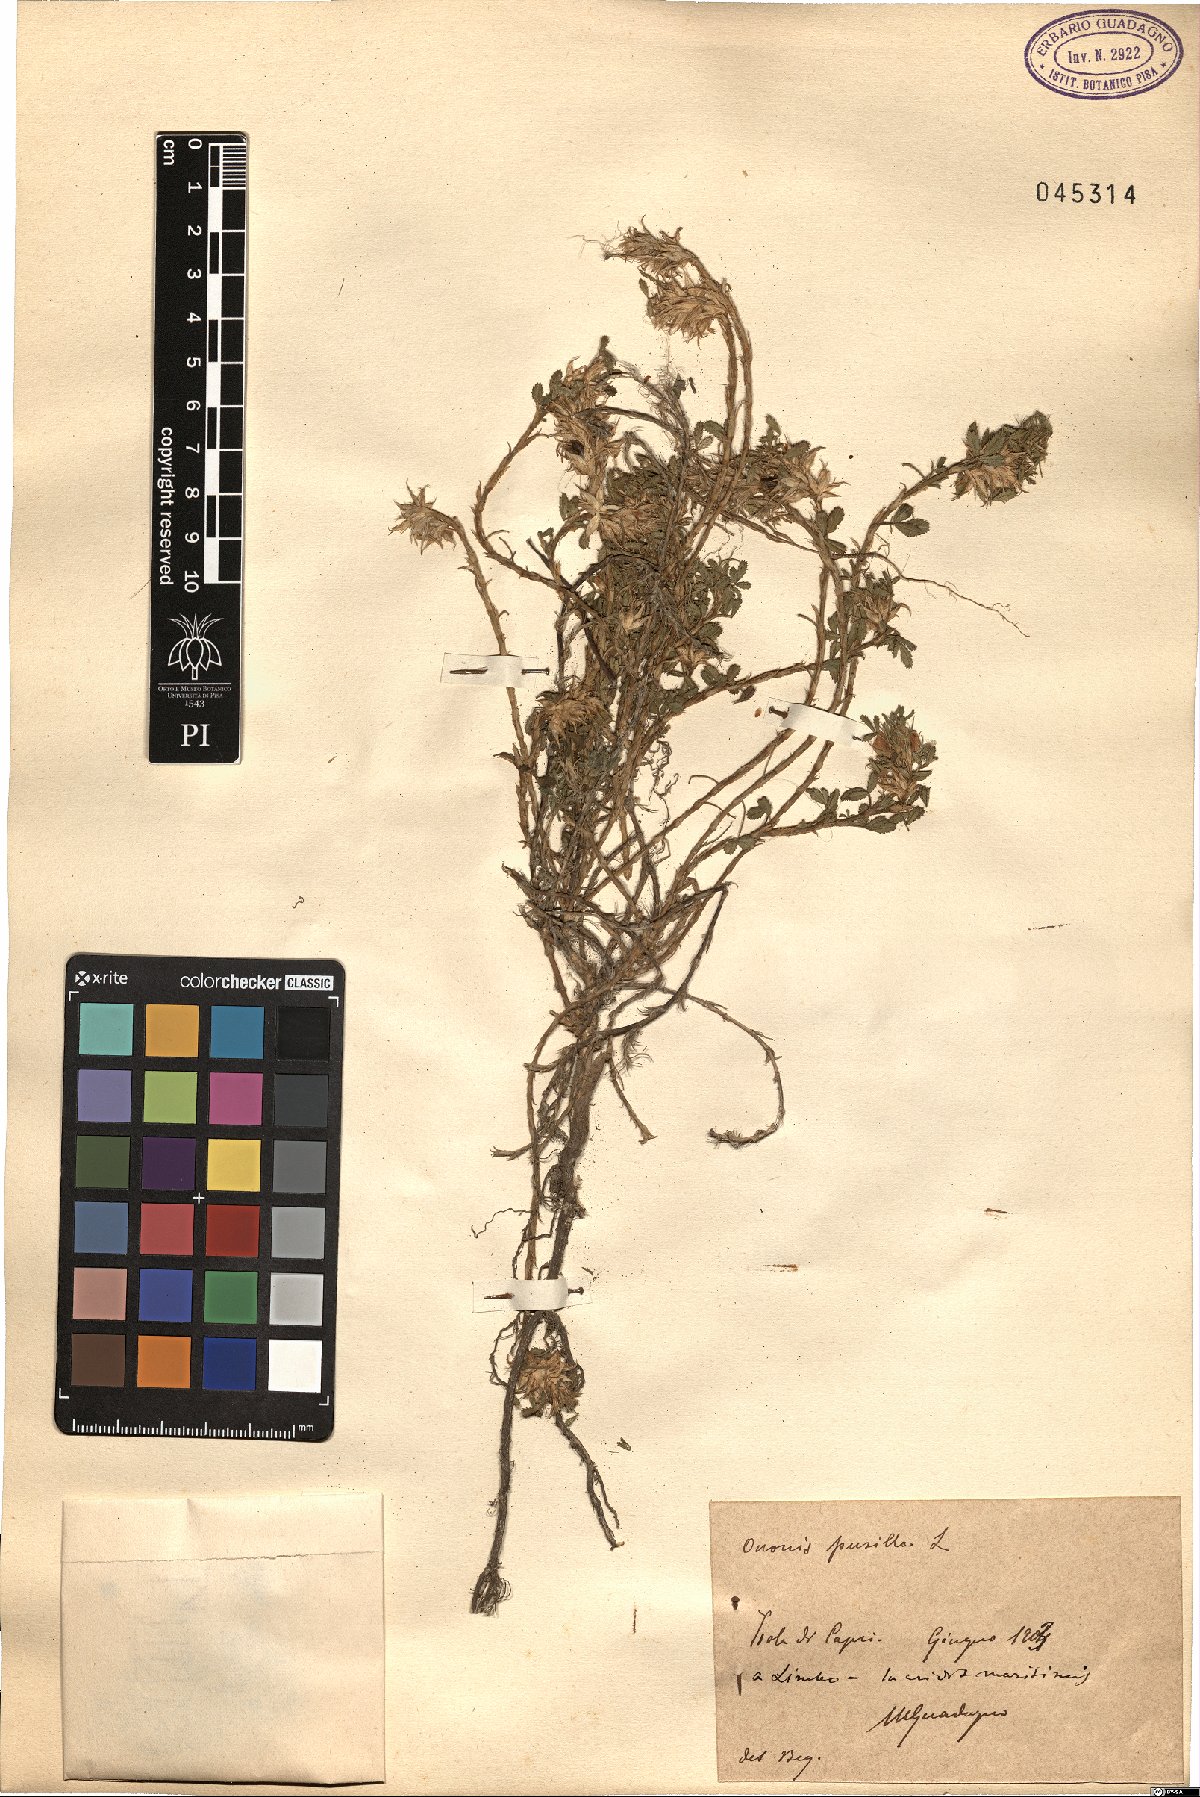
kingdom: Plantae
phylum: Tracheophyta
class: Magnoliopsida
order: Fabales
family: Fabaceae
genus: Ononis
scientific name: Ononis pusilla
